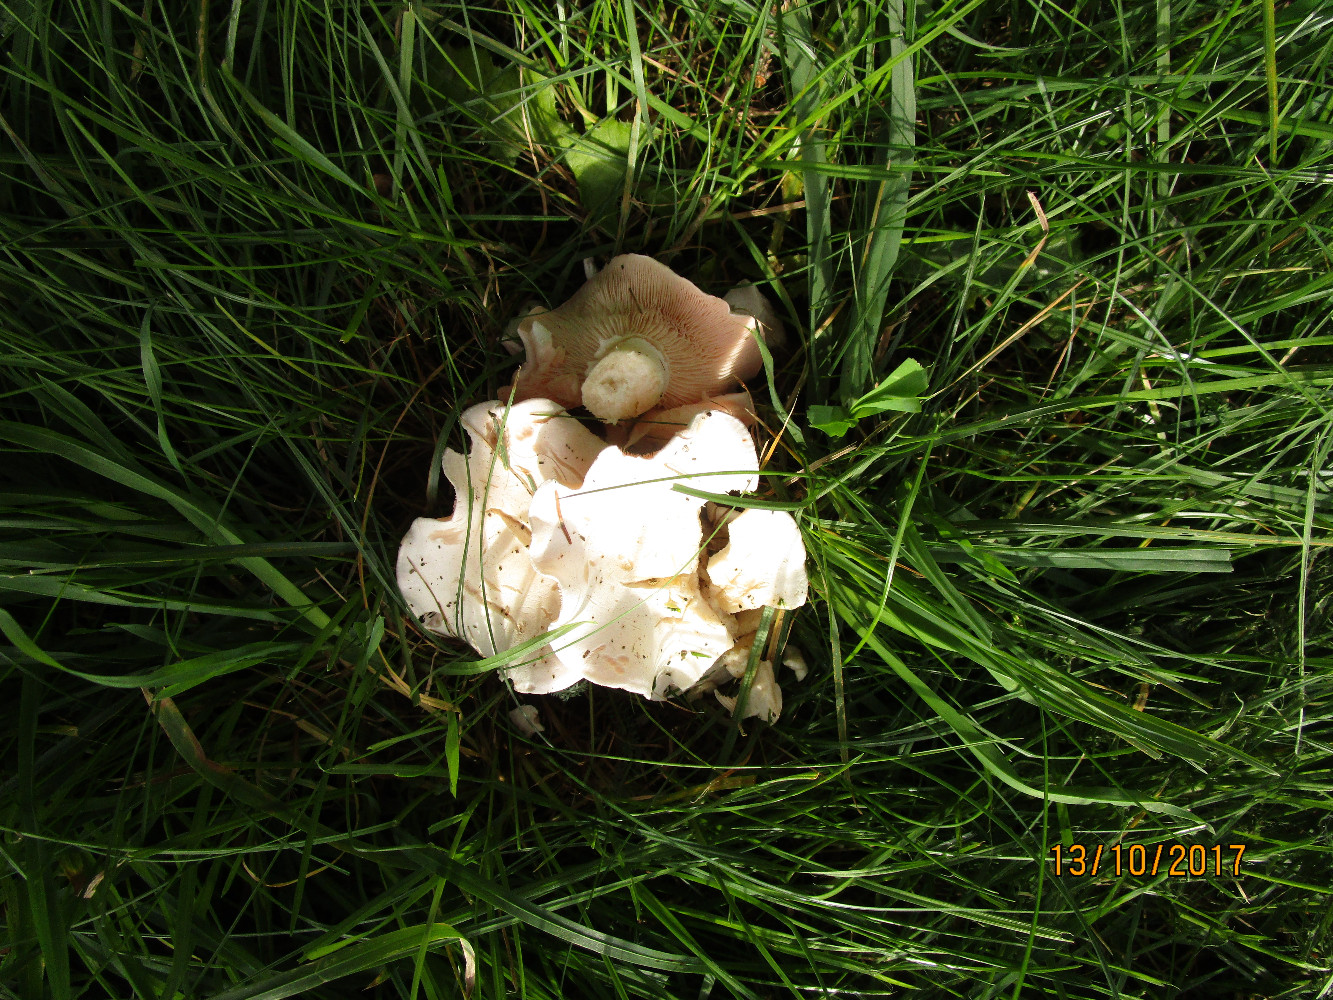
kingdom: Fungi
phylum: Basidiomycota
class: Agaricomycetes
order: Agaricales
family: Tricholomataceae
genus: Pseudoclitopilus
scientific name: Pseudoclitopilus rhodoleucus
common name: rosabladet tragtridderhat
